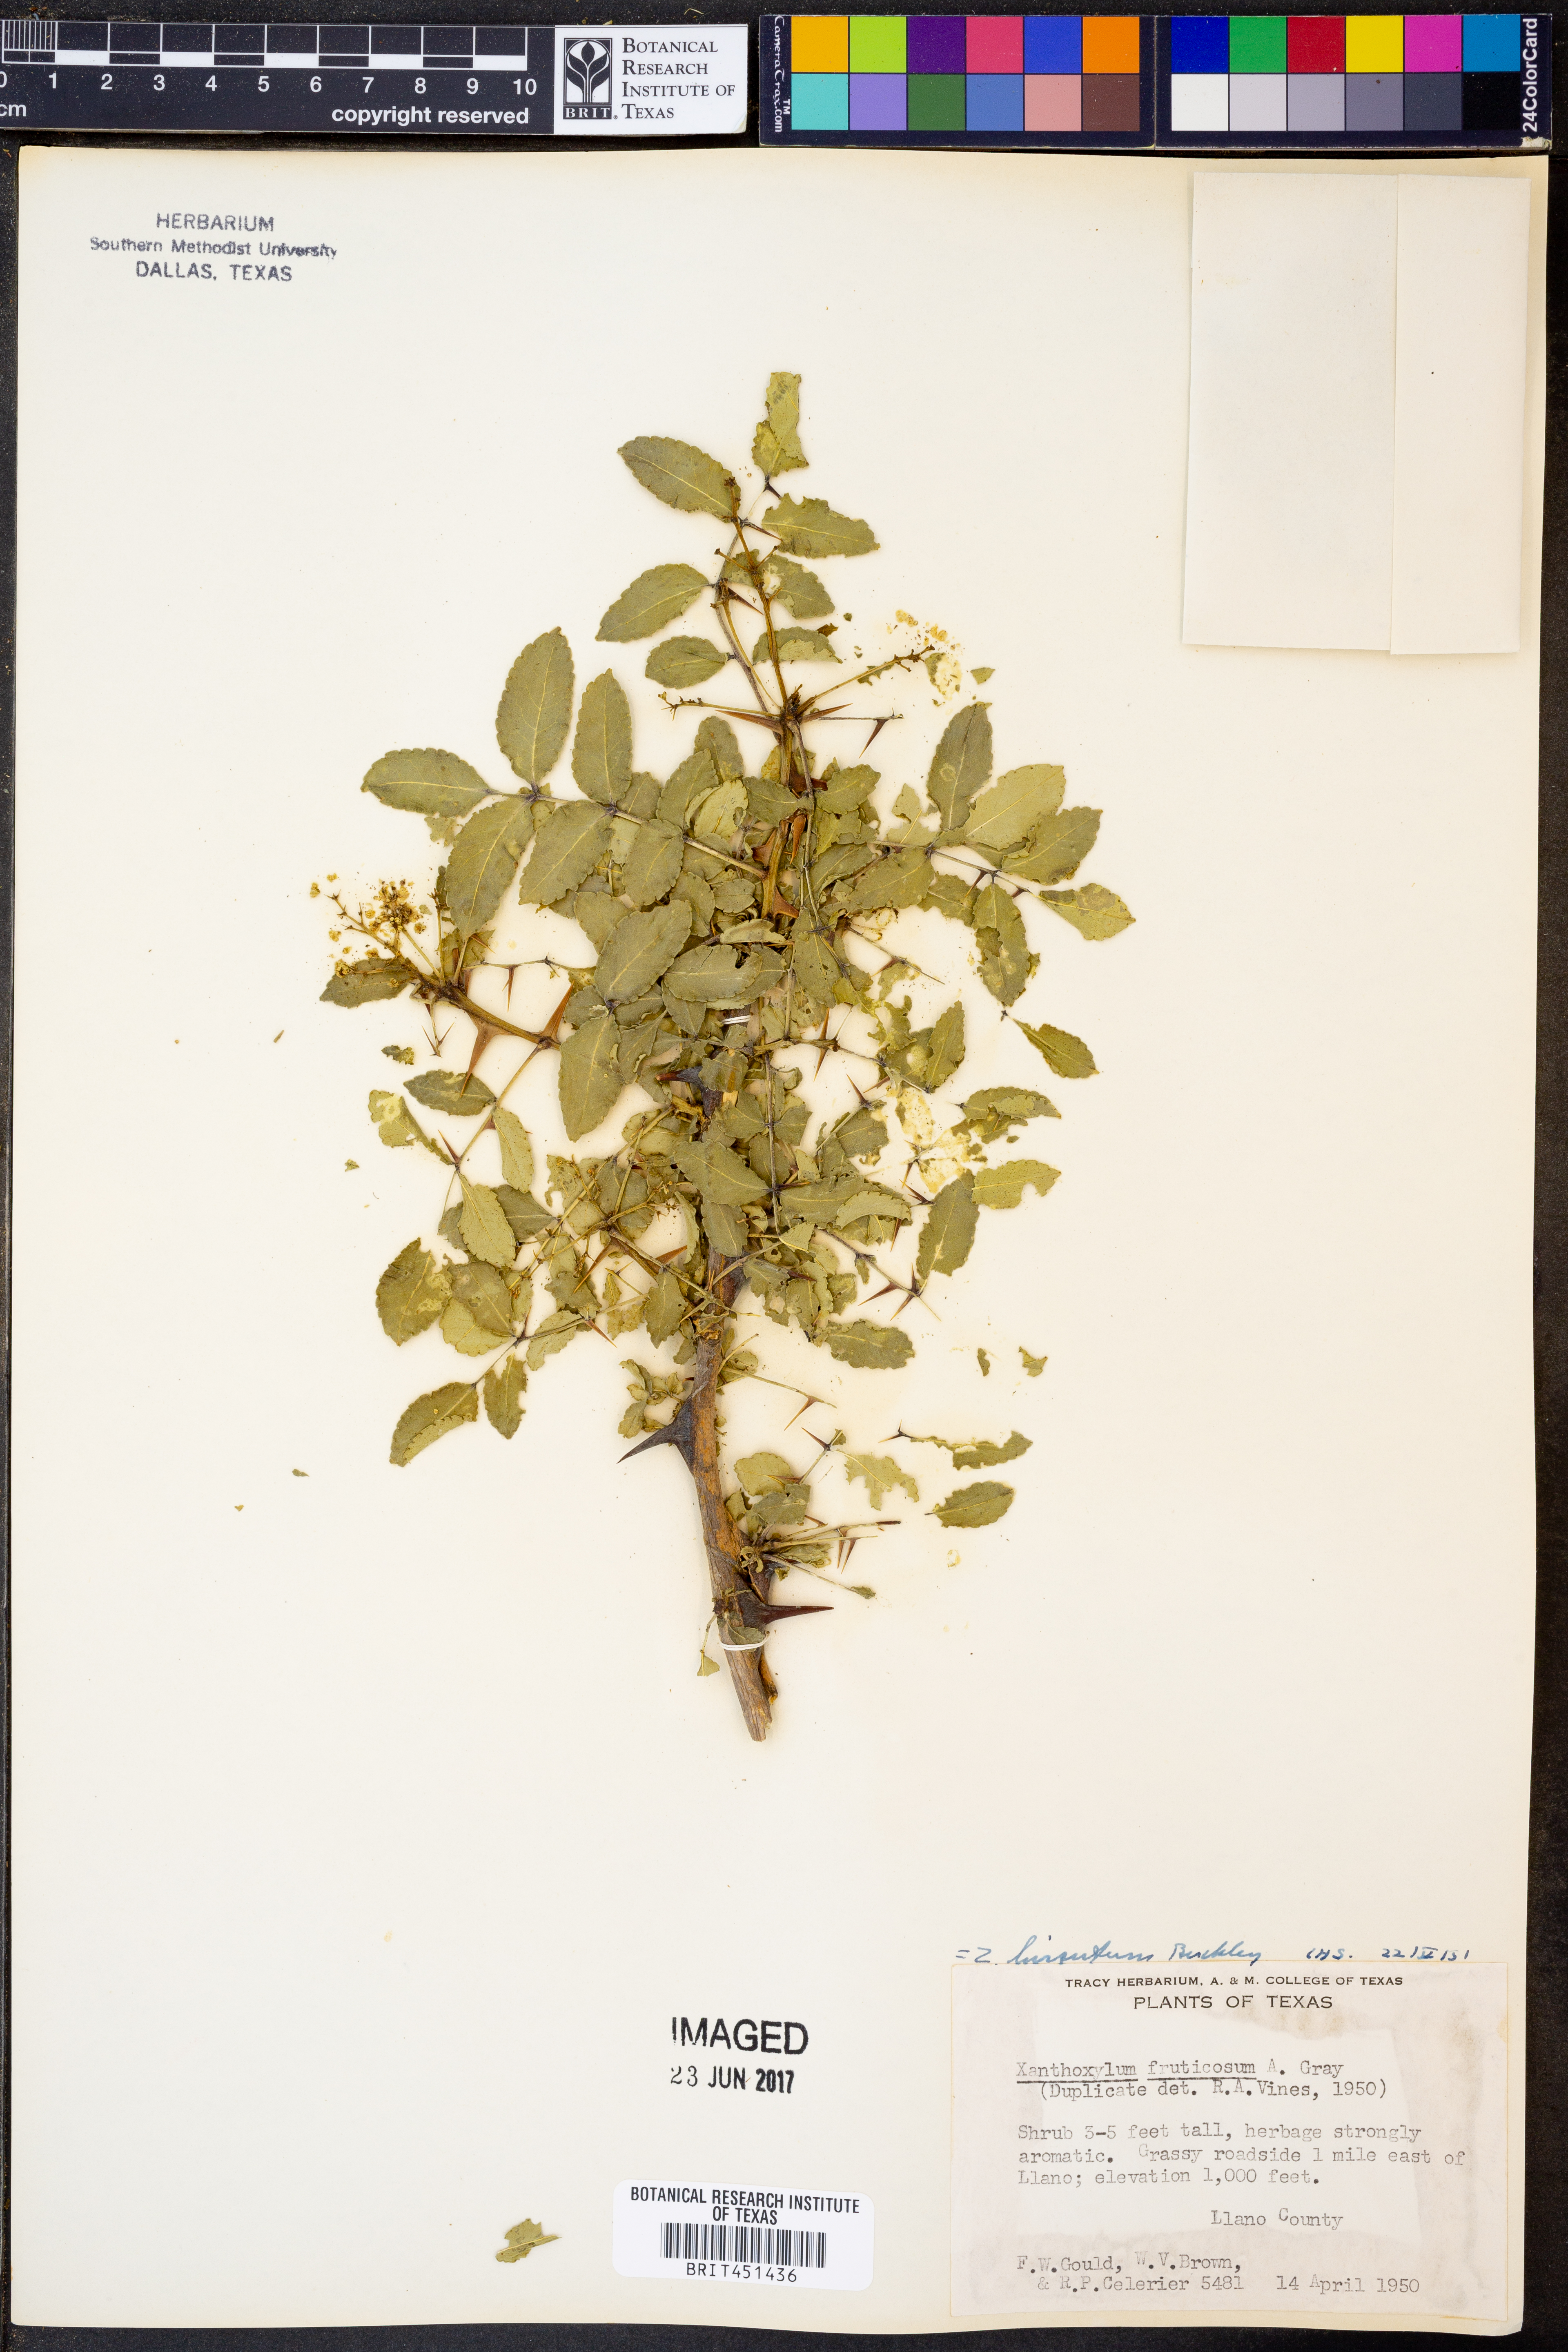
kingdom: Plantae
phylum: Tracheophyta
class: Magnoliopsida
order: Sapindales
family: Rutaceae
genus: Zanthoxylum
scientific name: Zanthoxylum clava-herculis
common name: Hercules'-club
